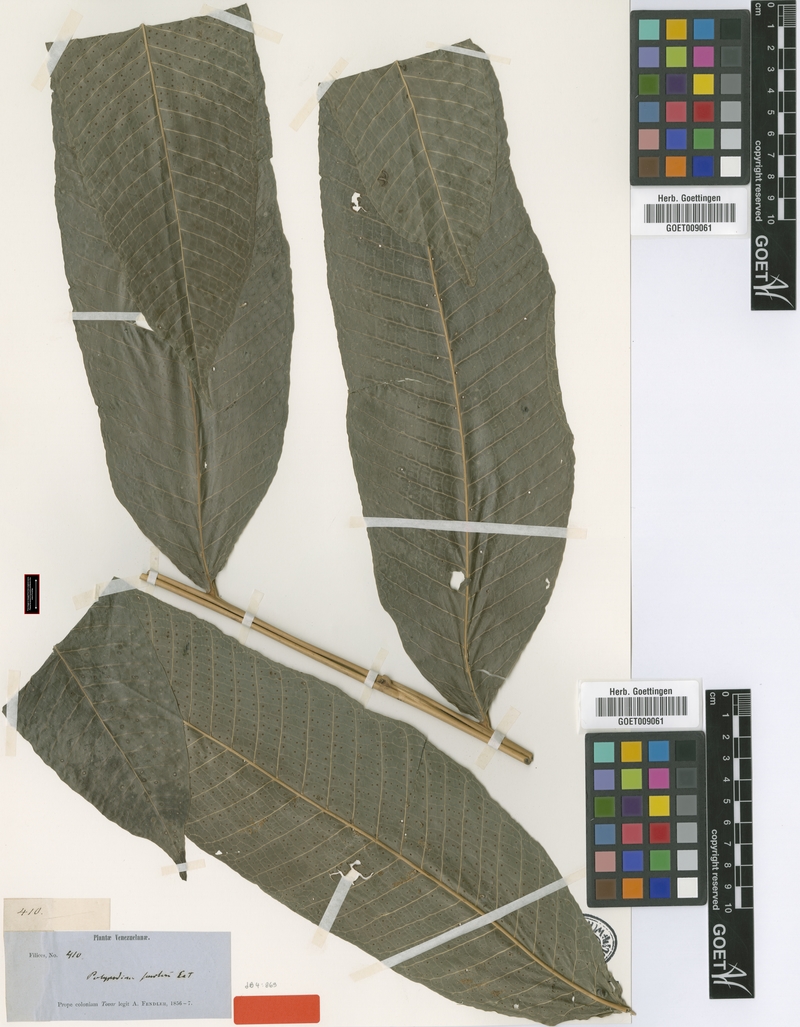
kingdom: Plantae
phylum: Tracheophyta
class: Polypodiopsida
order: Polypodiales
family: Polypodiaceae
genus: Campyloneurum
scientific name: Campyloneurum magnificum
